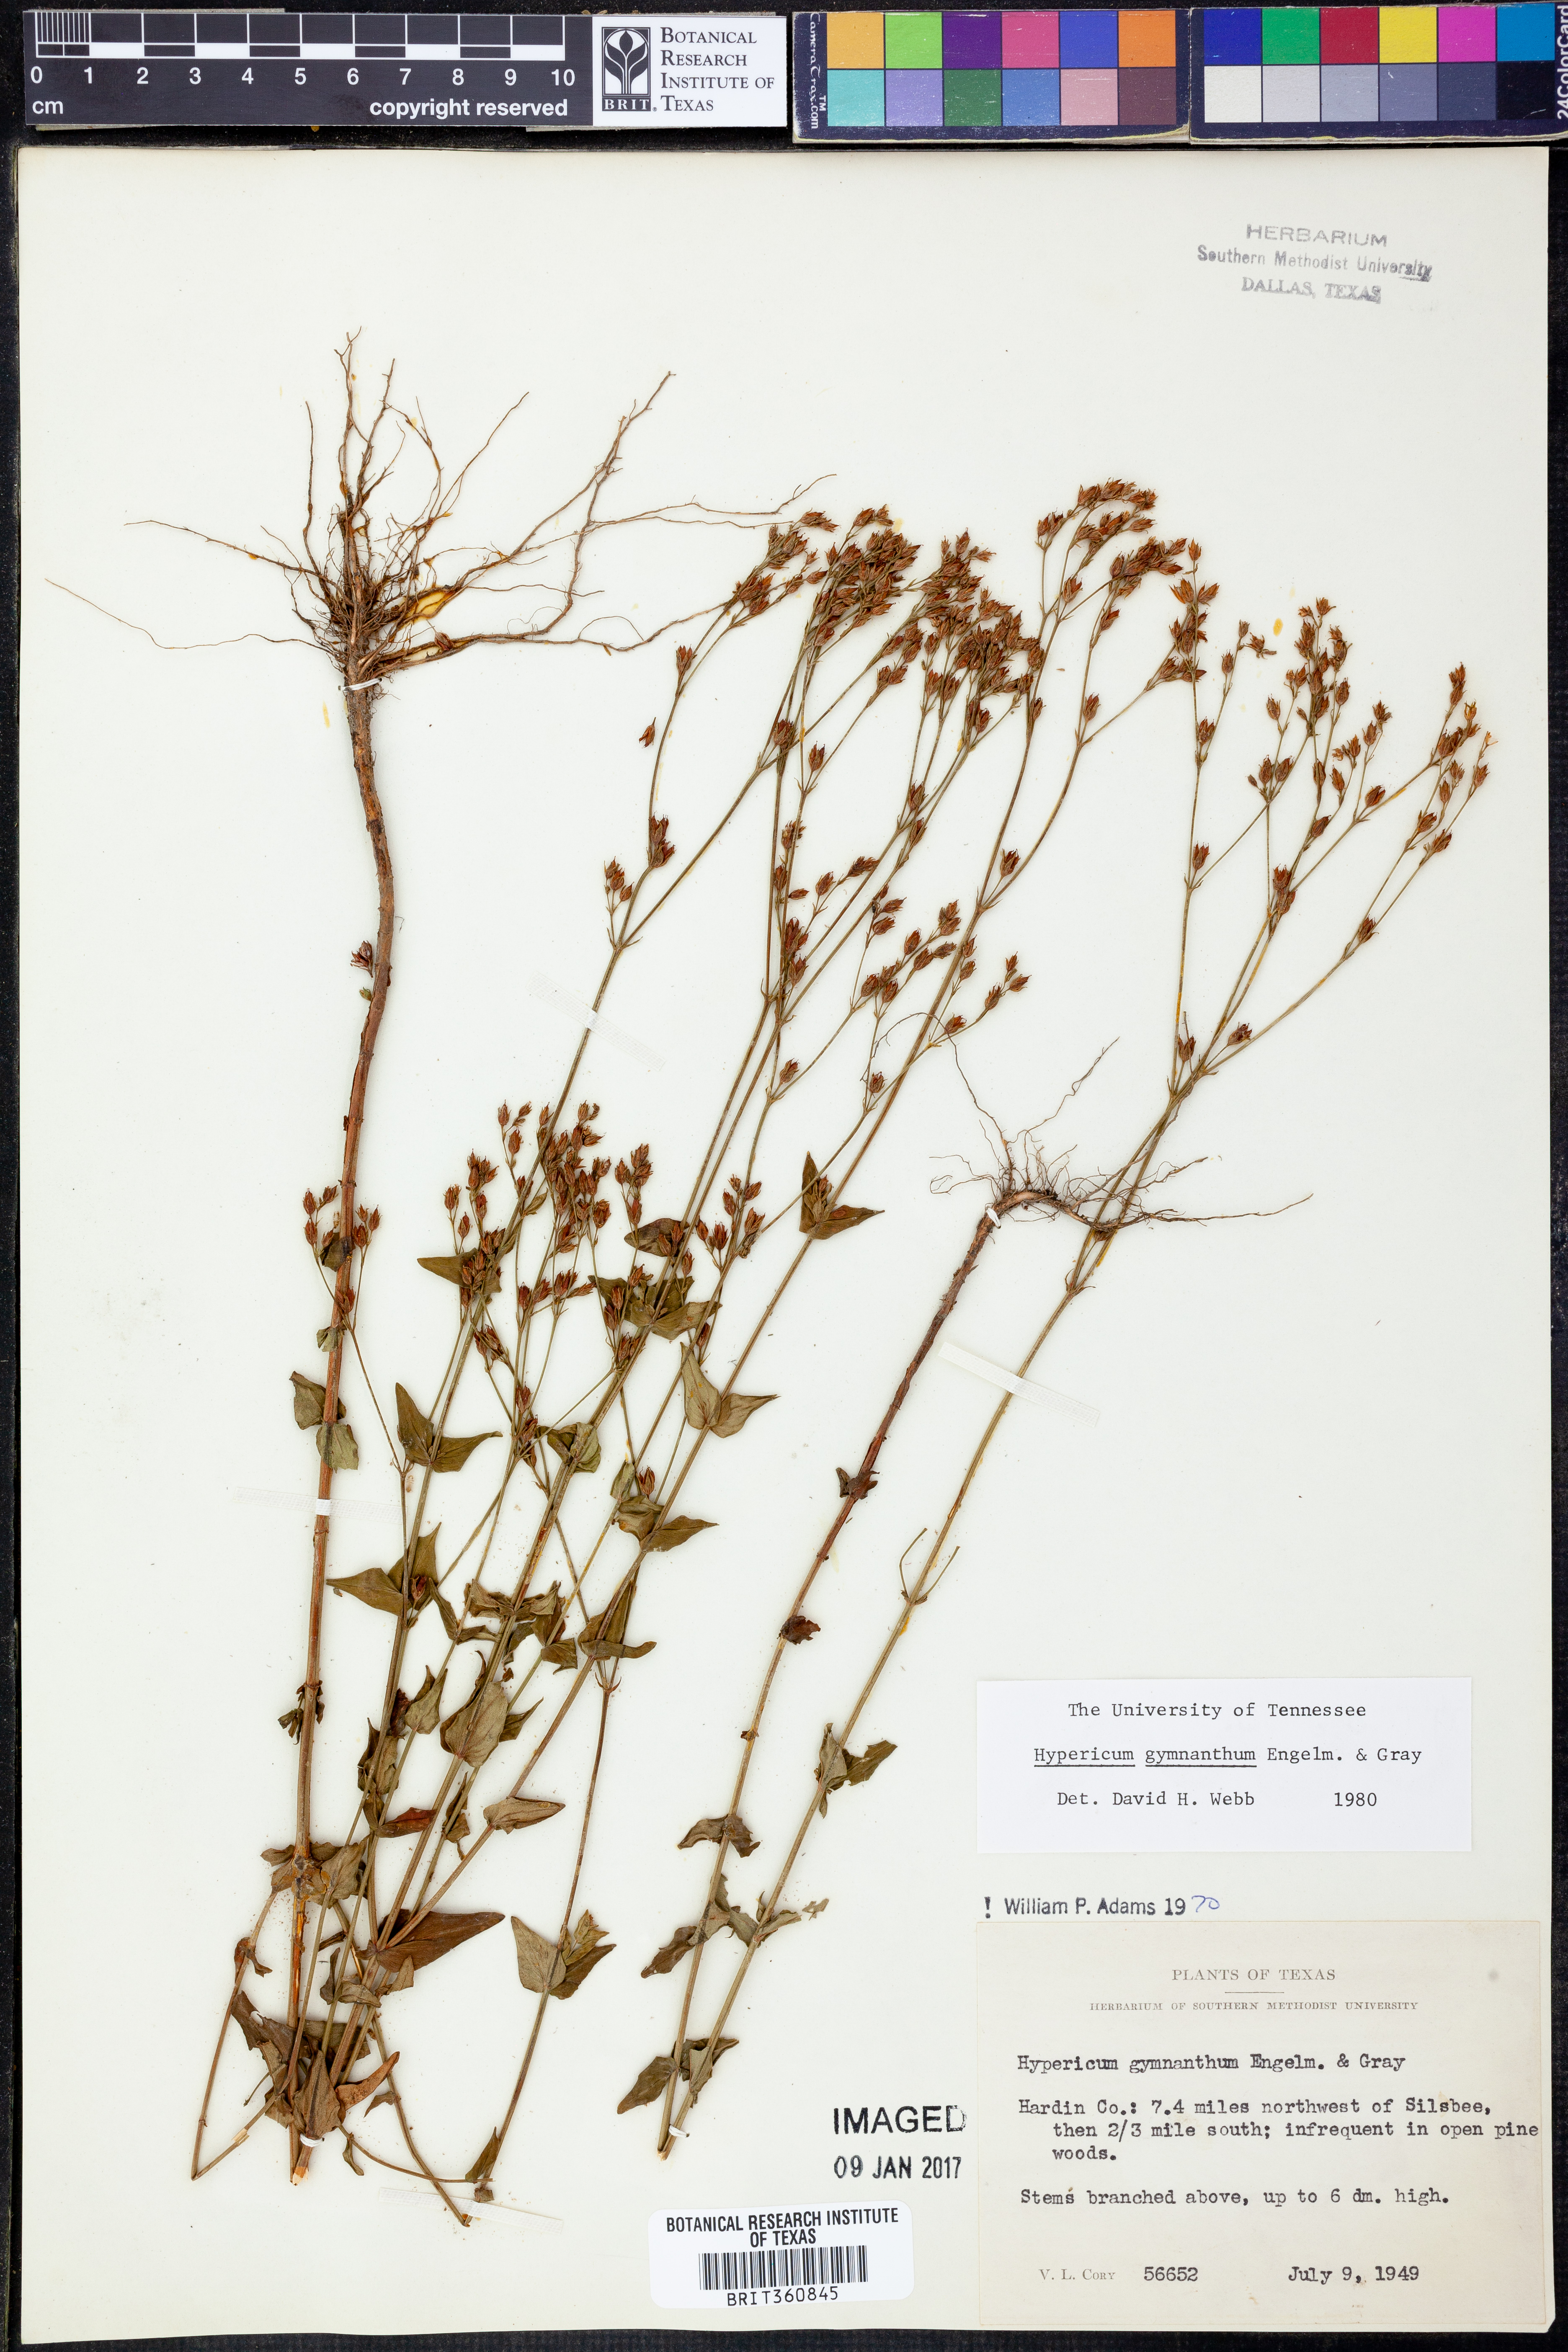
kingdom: Plantae
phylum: Tracheophyta
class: Magnoliopsida
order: Malpighiales
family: Hypericaceae
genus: Hypericum
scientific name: Hypericum gymnanthum
